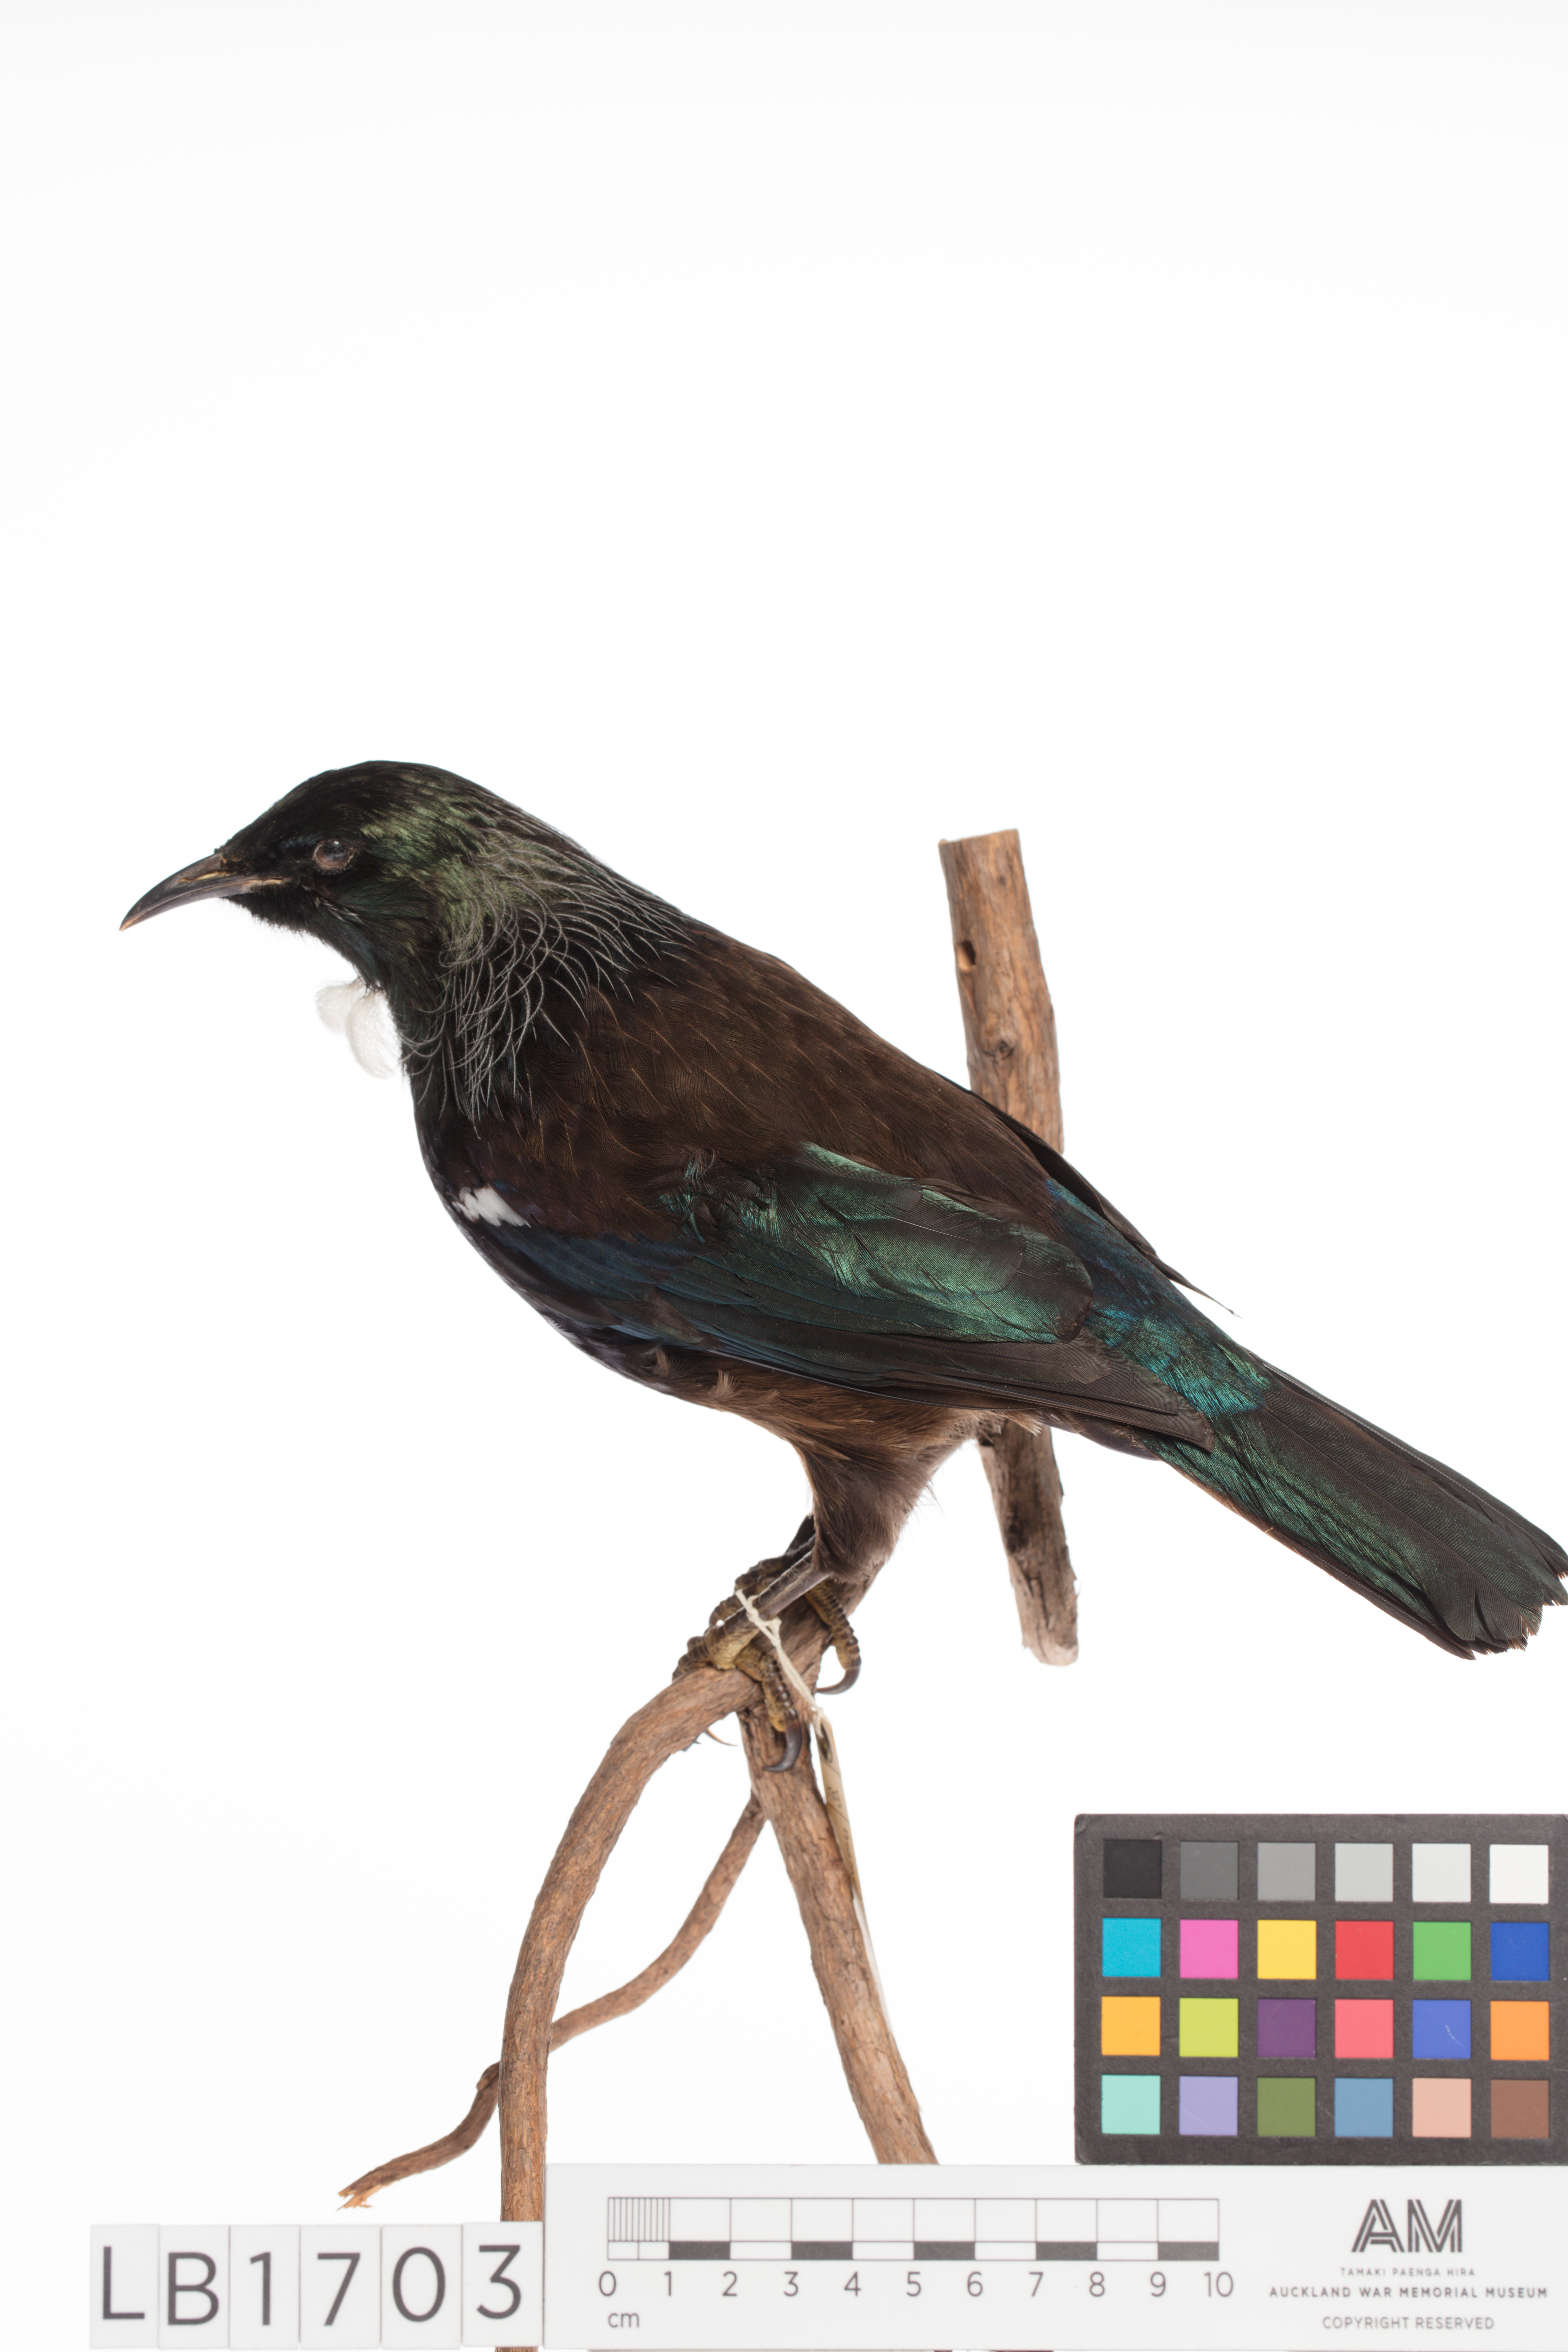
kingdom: Animalia
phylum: Chordata
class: Aves
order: Passeriformes
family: Meliphagidae
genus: Prosthemadera
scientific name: Prosthemadera novaeseelandiae
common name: Tui
